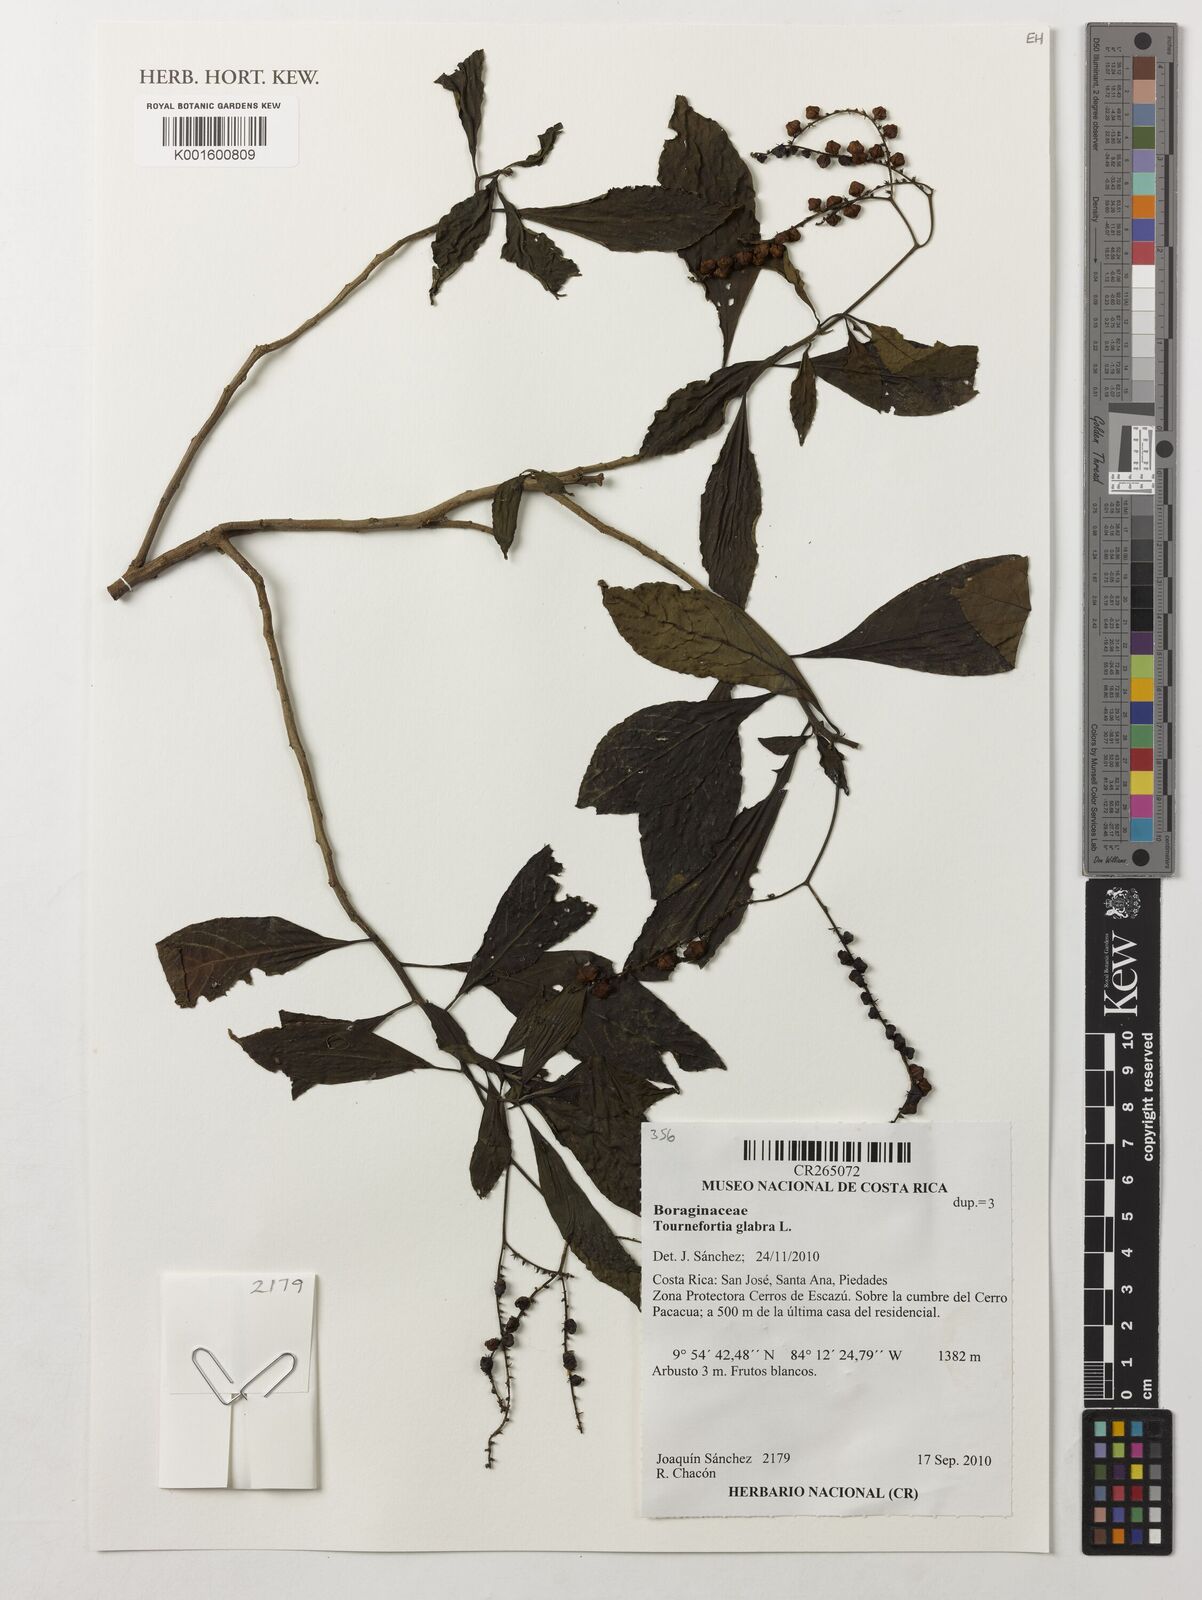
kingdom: Plantae
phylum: Tracheophyta
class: Magnoliopsida
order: Boraginales
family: Heliotropiaceae
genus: Heliotropium
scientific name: Heliotropium glabrum
